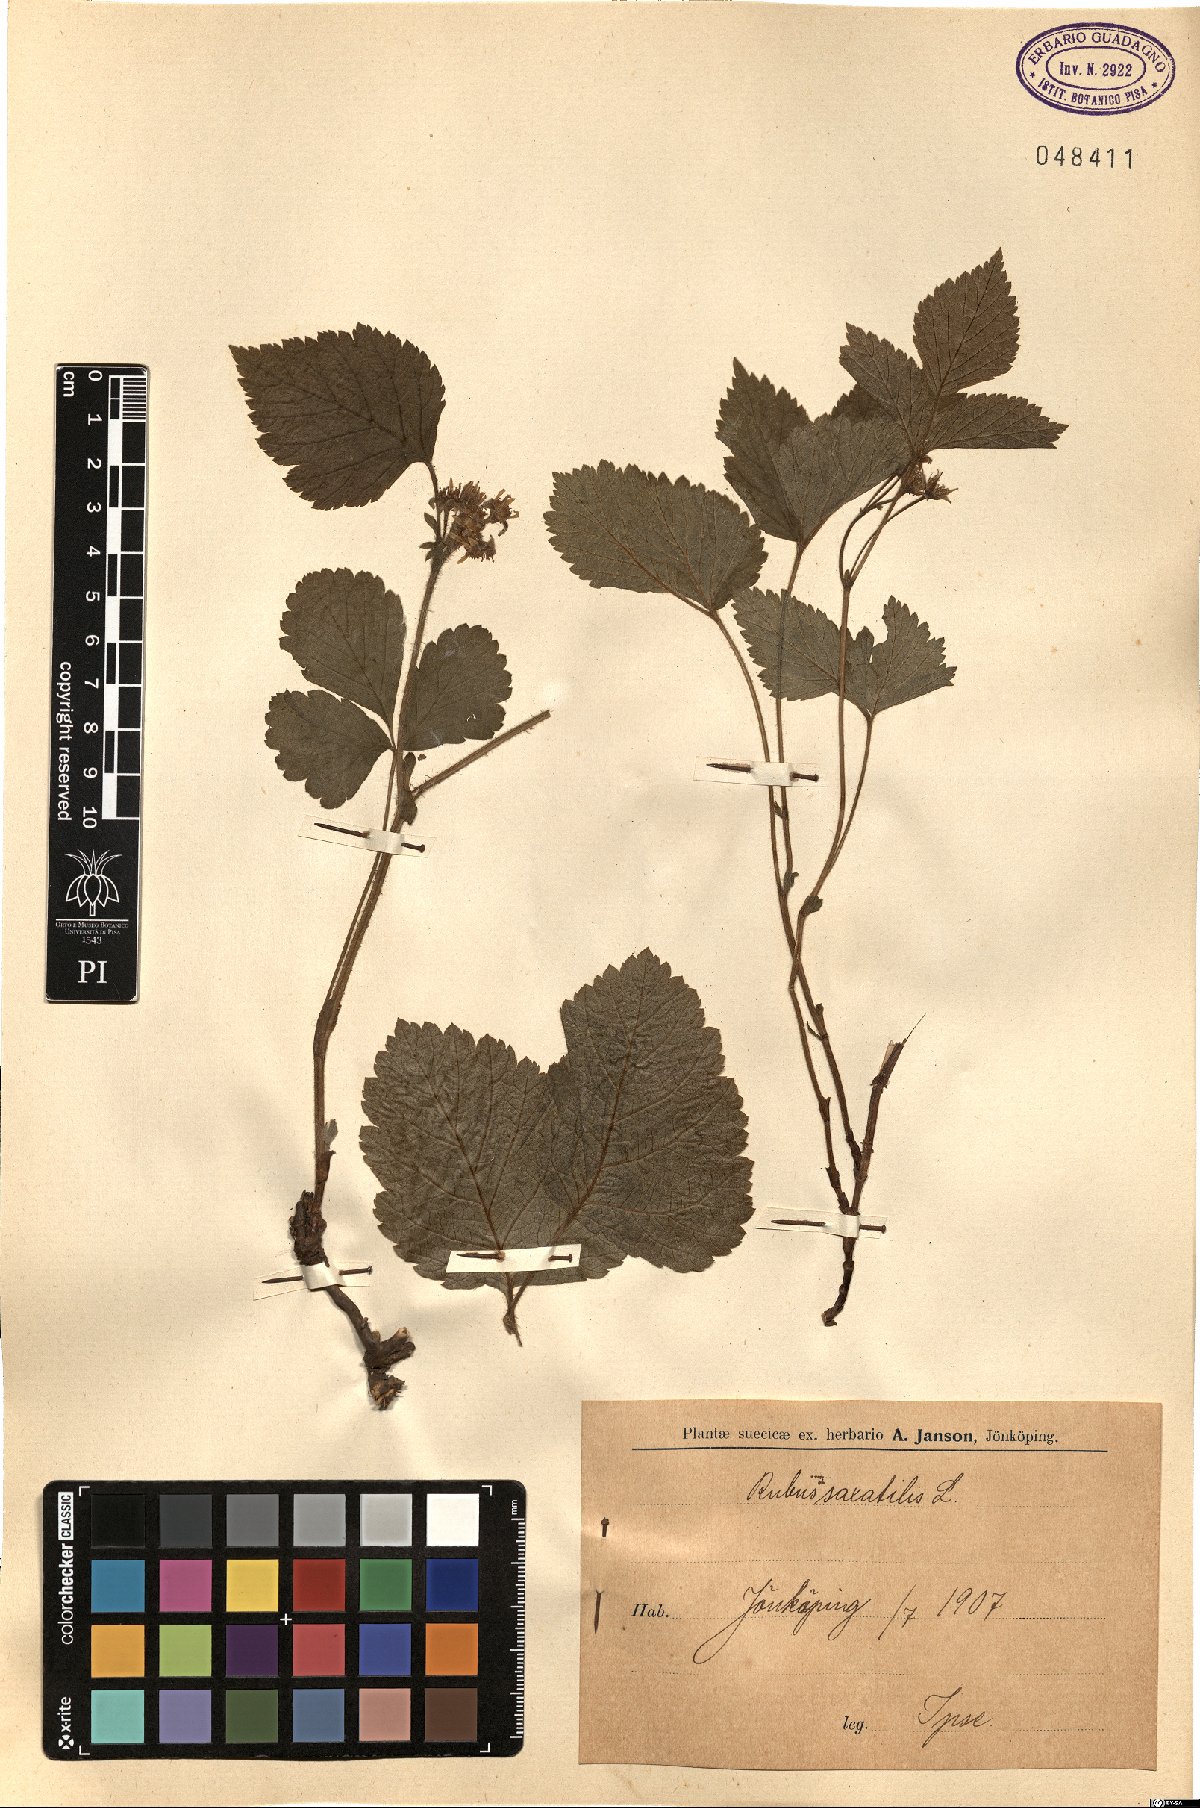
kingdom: Plantae
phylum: Tracheophyta
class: Magnoliopsida
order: Rosales
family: Rosaceae
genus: Rubus
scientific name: Rubus saxatilis
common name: Stone bramble
